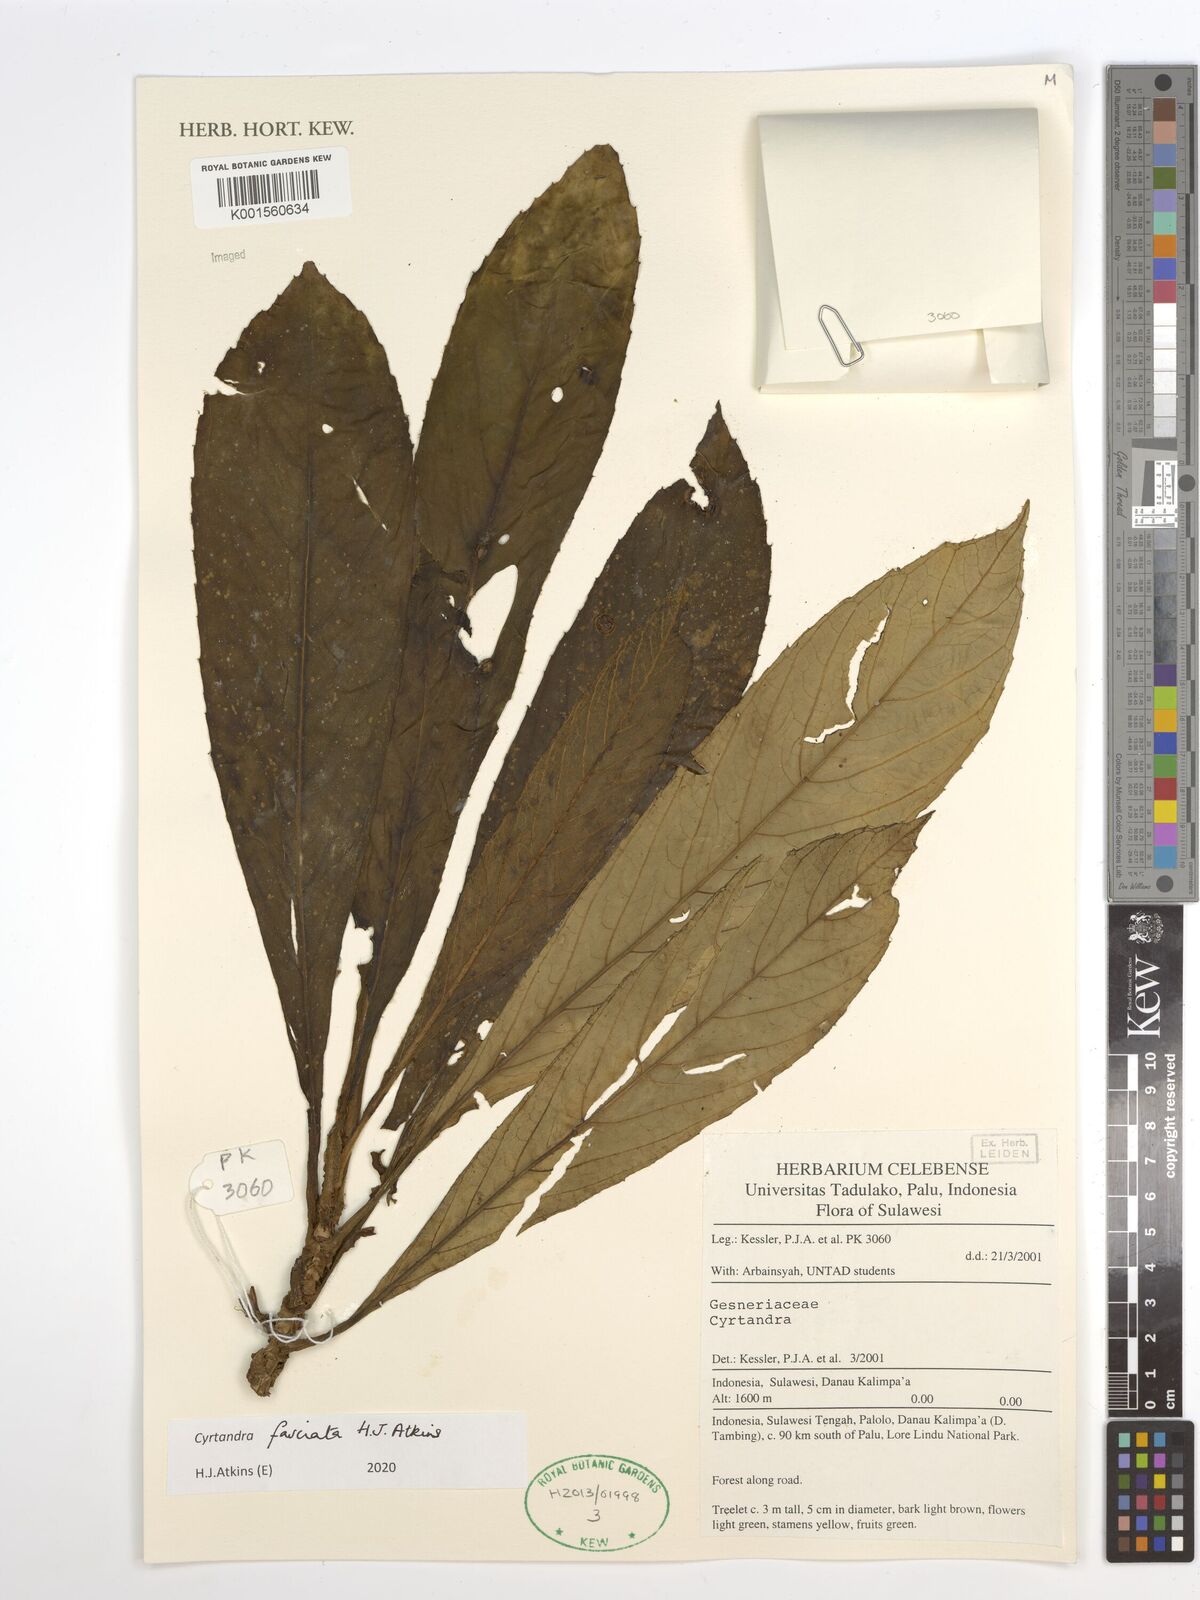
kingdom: Plantae
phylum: Tracheophyta
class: Magnoliopsida
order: Lamiales
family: Gesneriaceae
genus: Cyrtandra
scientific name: Cyrtandra fasciata
